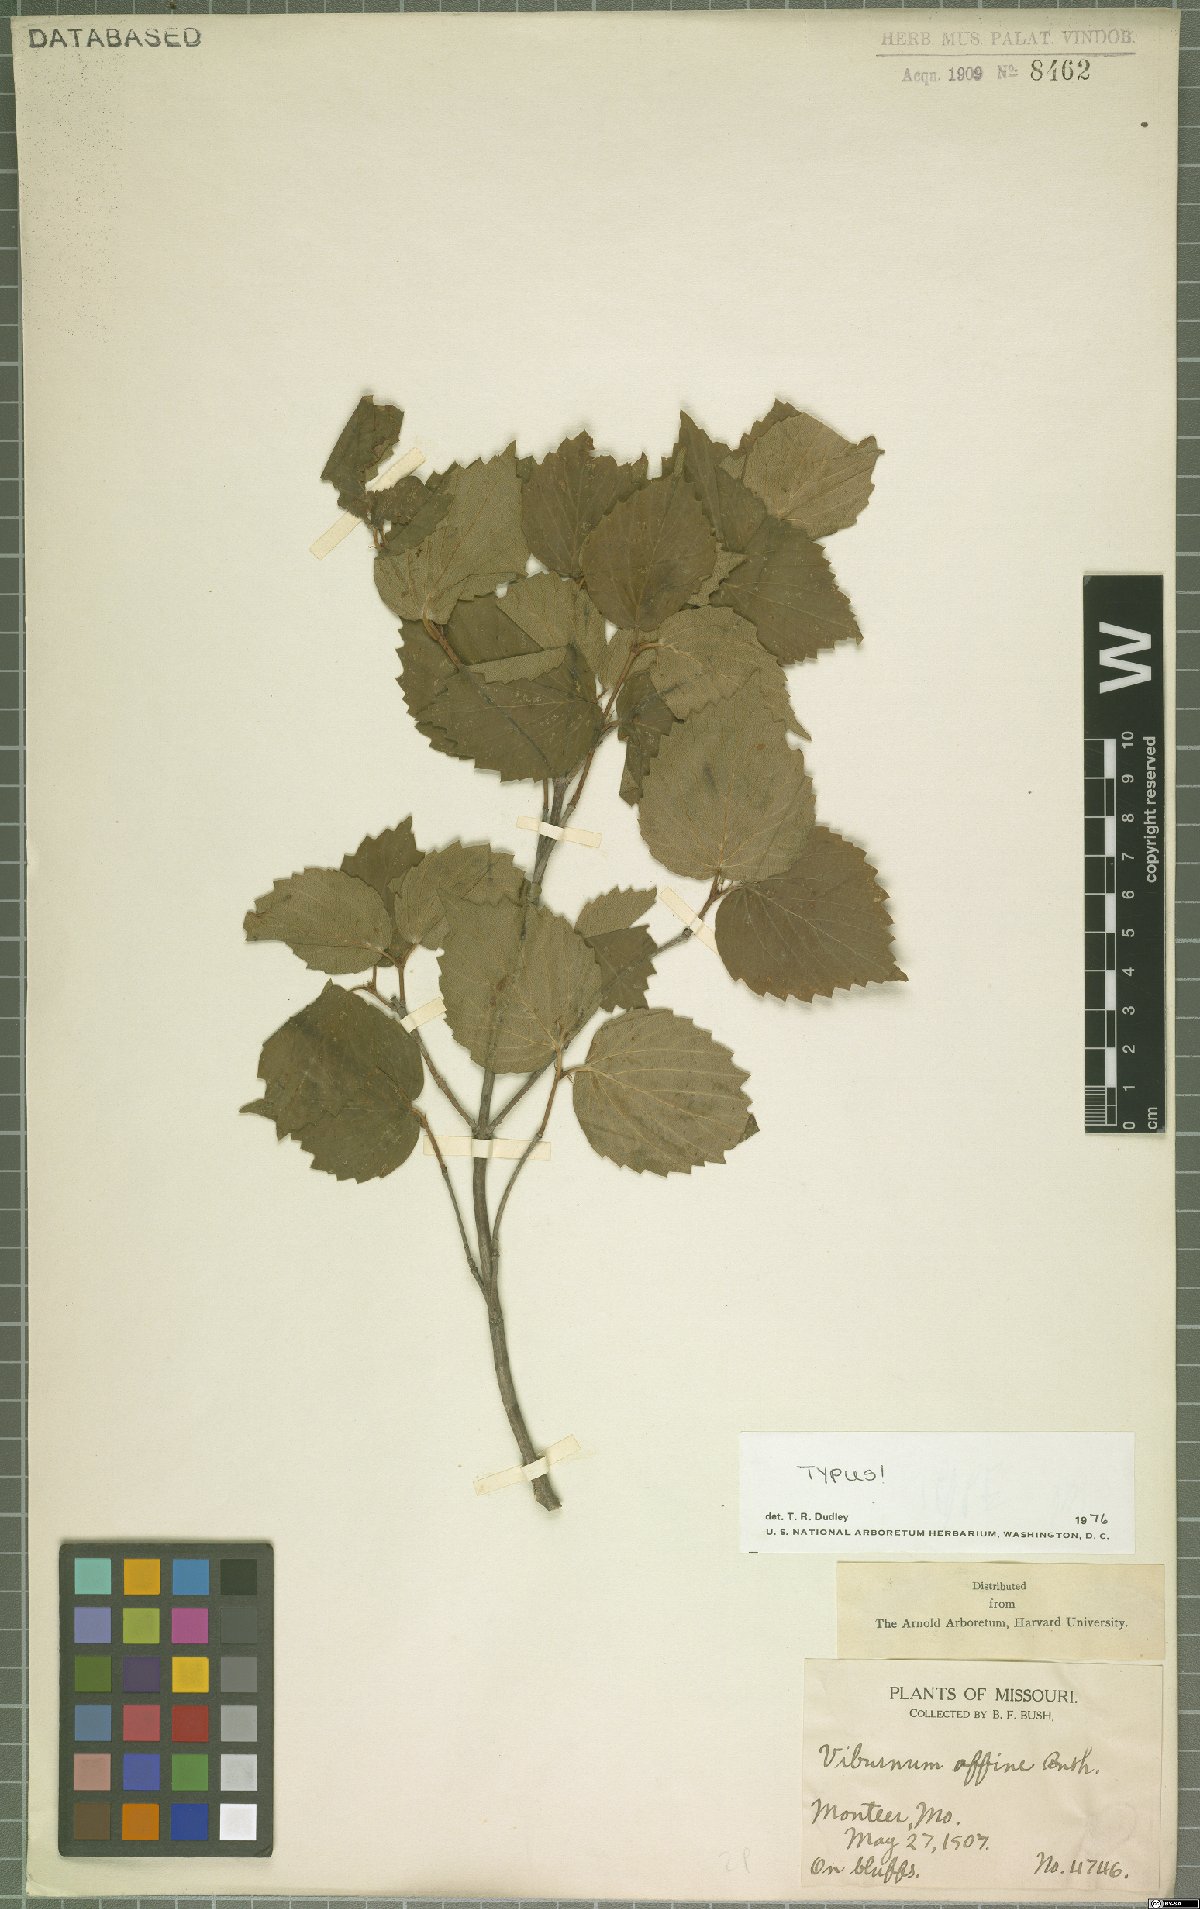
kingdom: Plantae
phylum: Tracheophyta
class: Magnoliopsida
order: Dipsacales
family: Viburnaceae
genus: Viburnum
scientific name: Viburnum rafinesqueanum
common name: Downy arrow-wood
